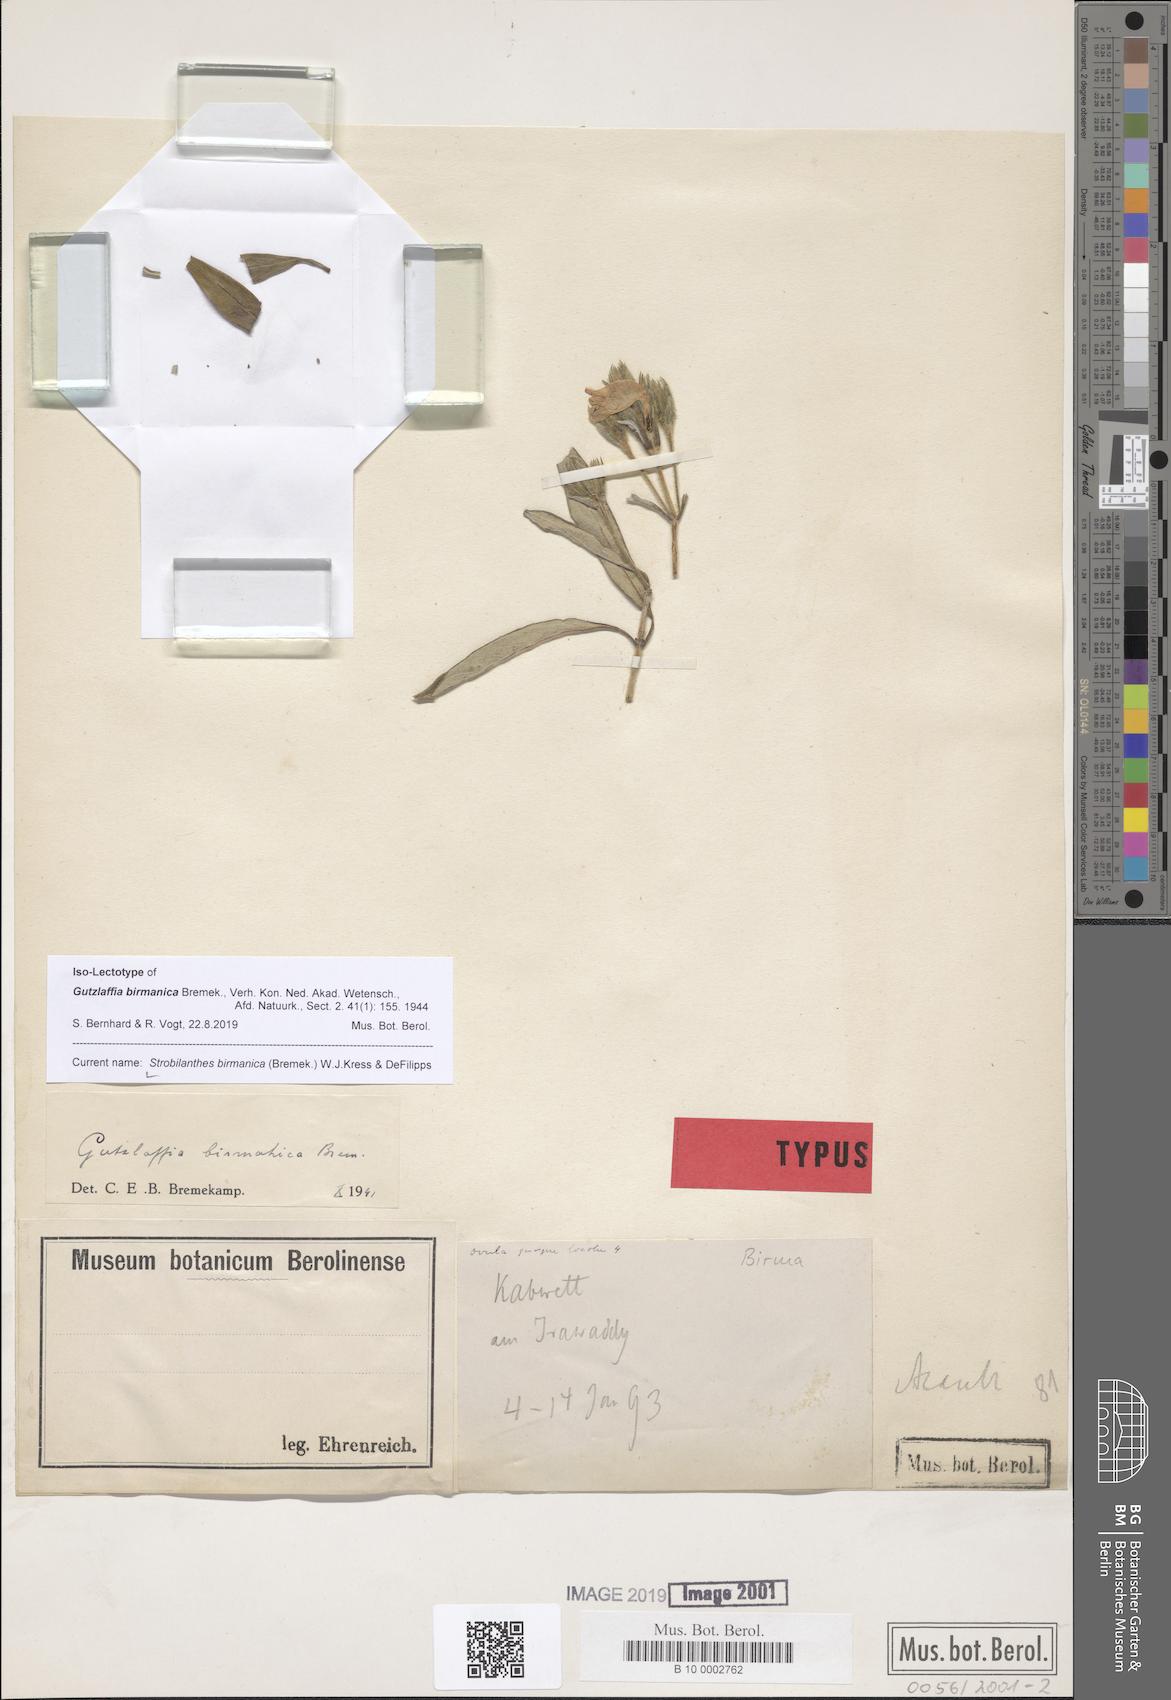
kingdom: Plantae
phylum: Tracheophyta
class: Magnoliopsida
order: Lamiales
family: Acanthaceae
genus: Strobilanthes
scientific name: Strobilanthes rosea
